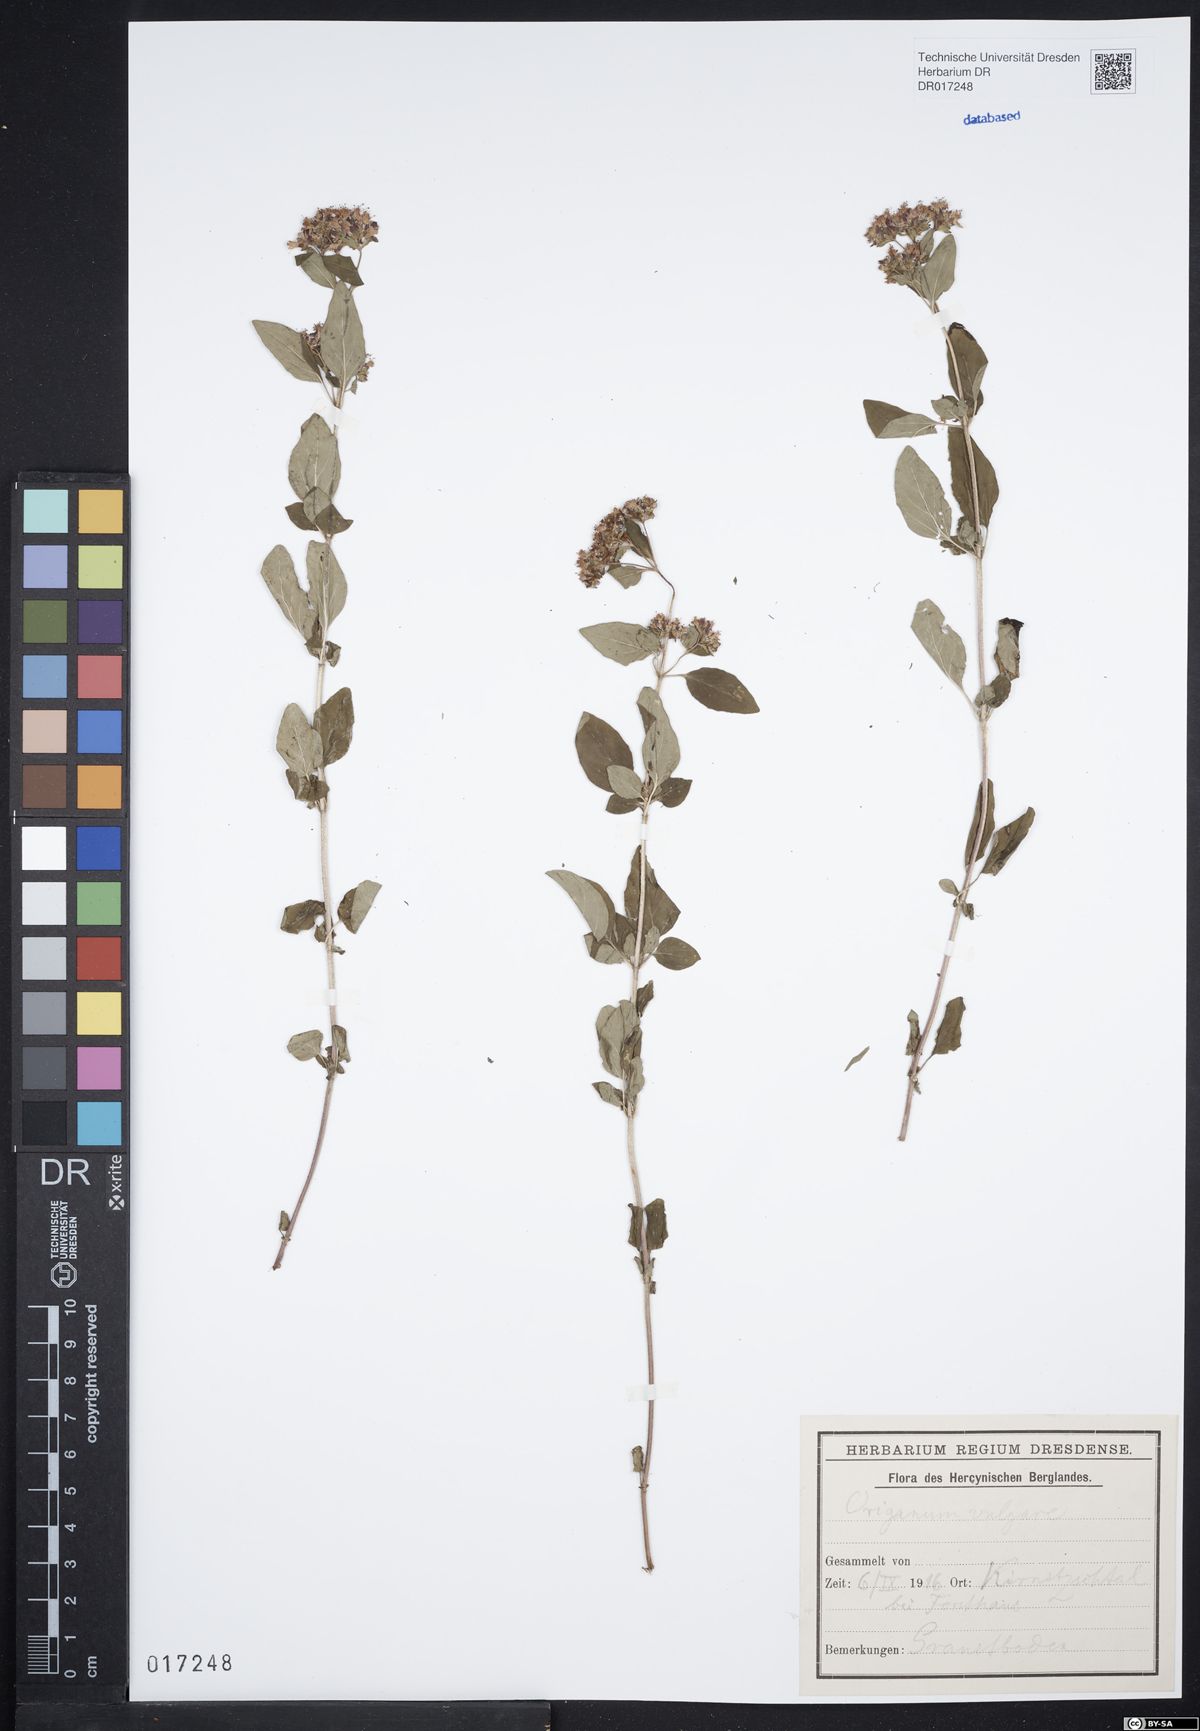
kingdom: Plantae
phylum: Tracheophyta
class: Magnoliopsida
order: Lamiales
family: Lamiaceae
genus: Origanum
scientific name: Origanum vulgare
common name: Wild marjoram
